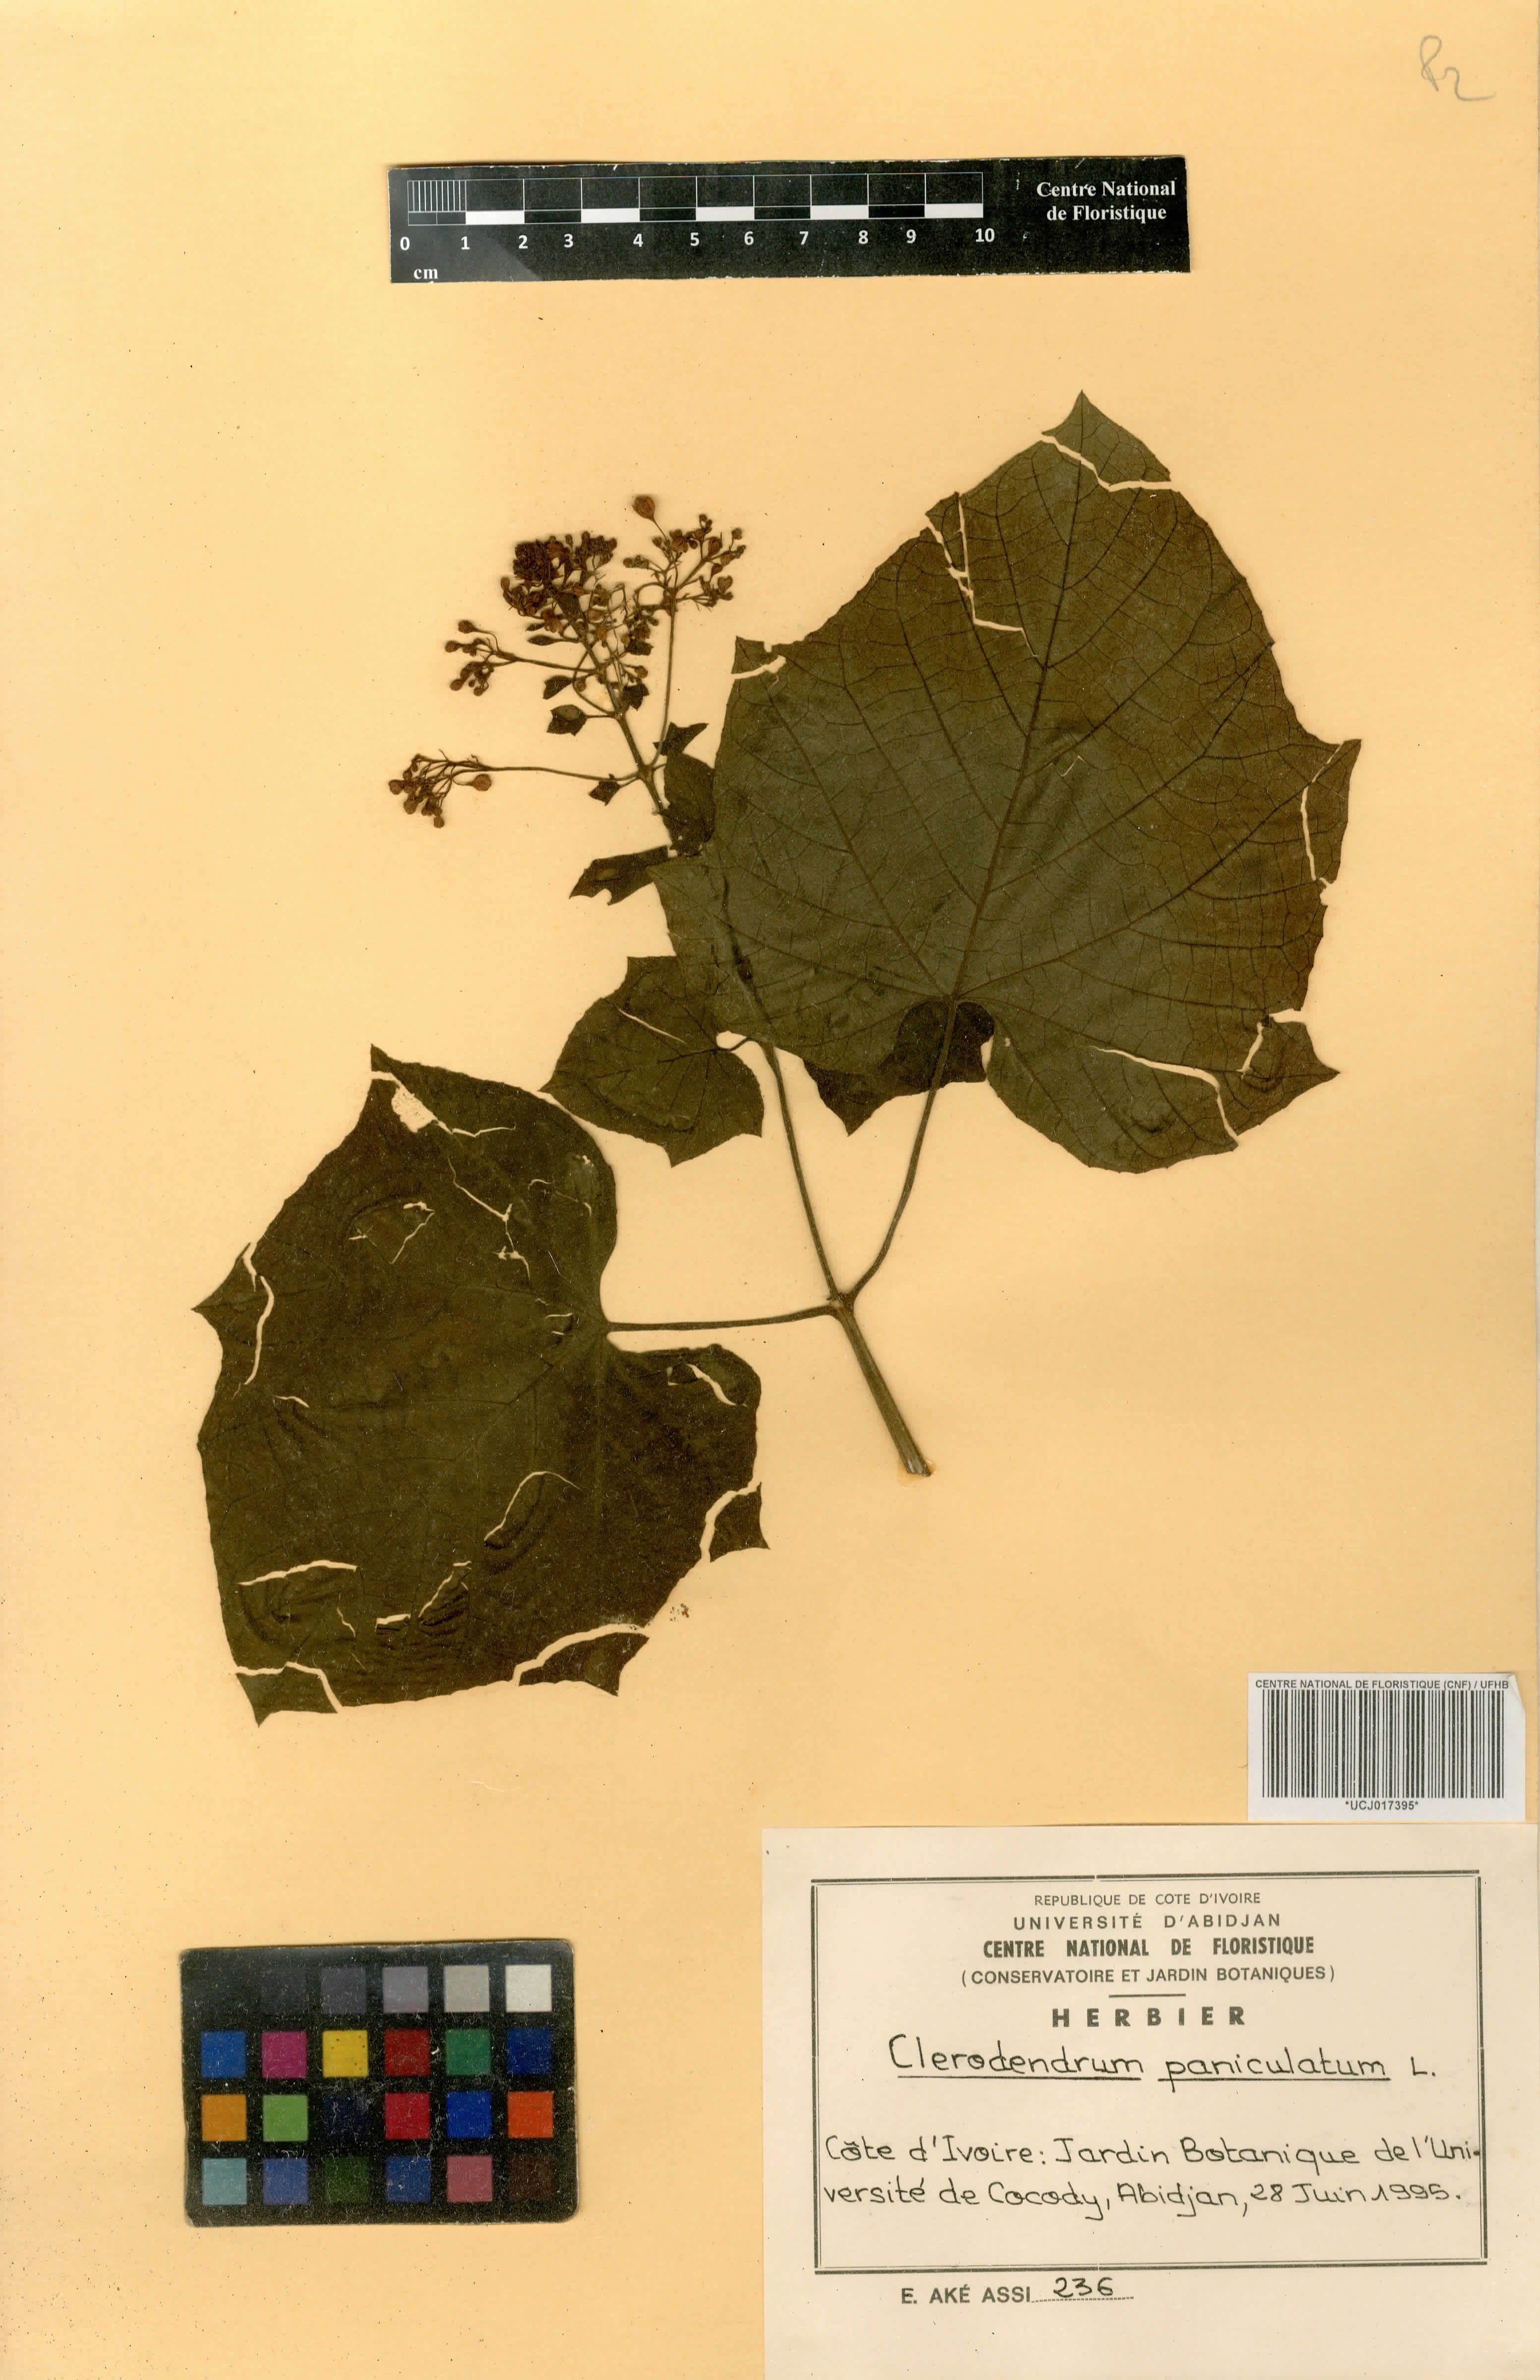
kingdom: Plantae
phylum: Tracheophyta
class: Magnoliopsida
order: Lamiales
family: Lamiaceae
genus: Clerodendrum
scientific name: Clerodendrum paniculatum
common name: Pagoda-flower
